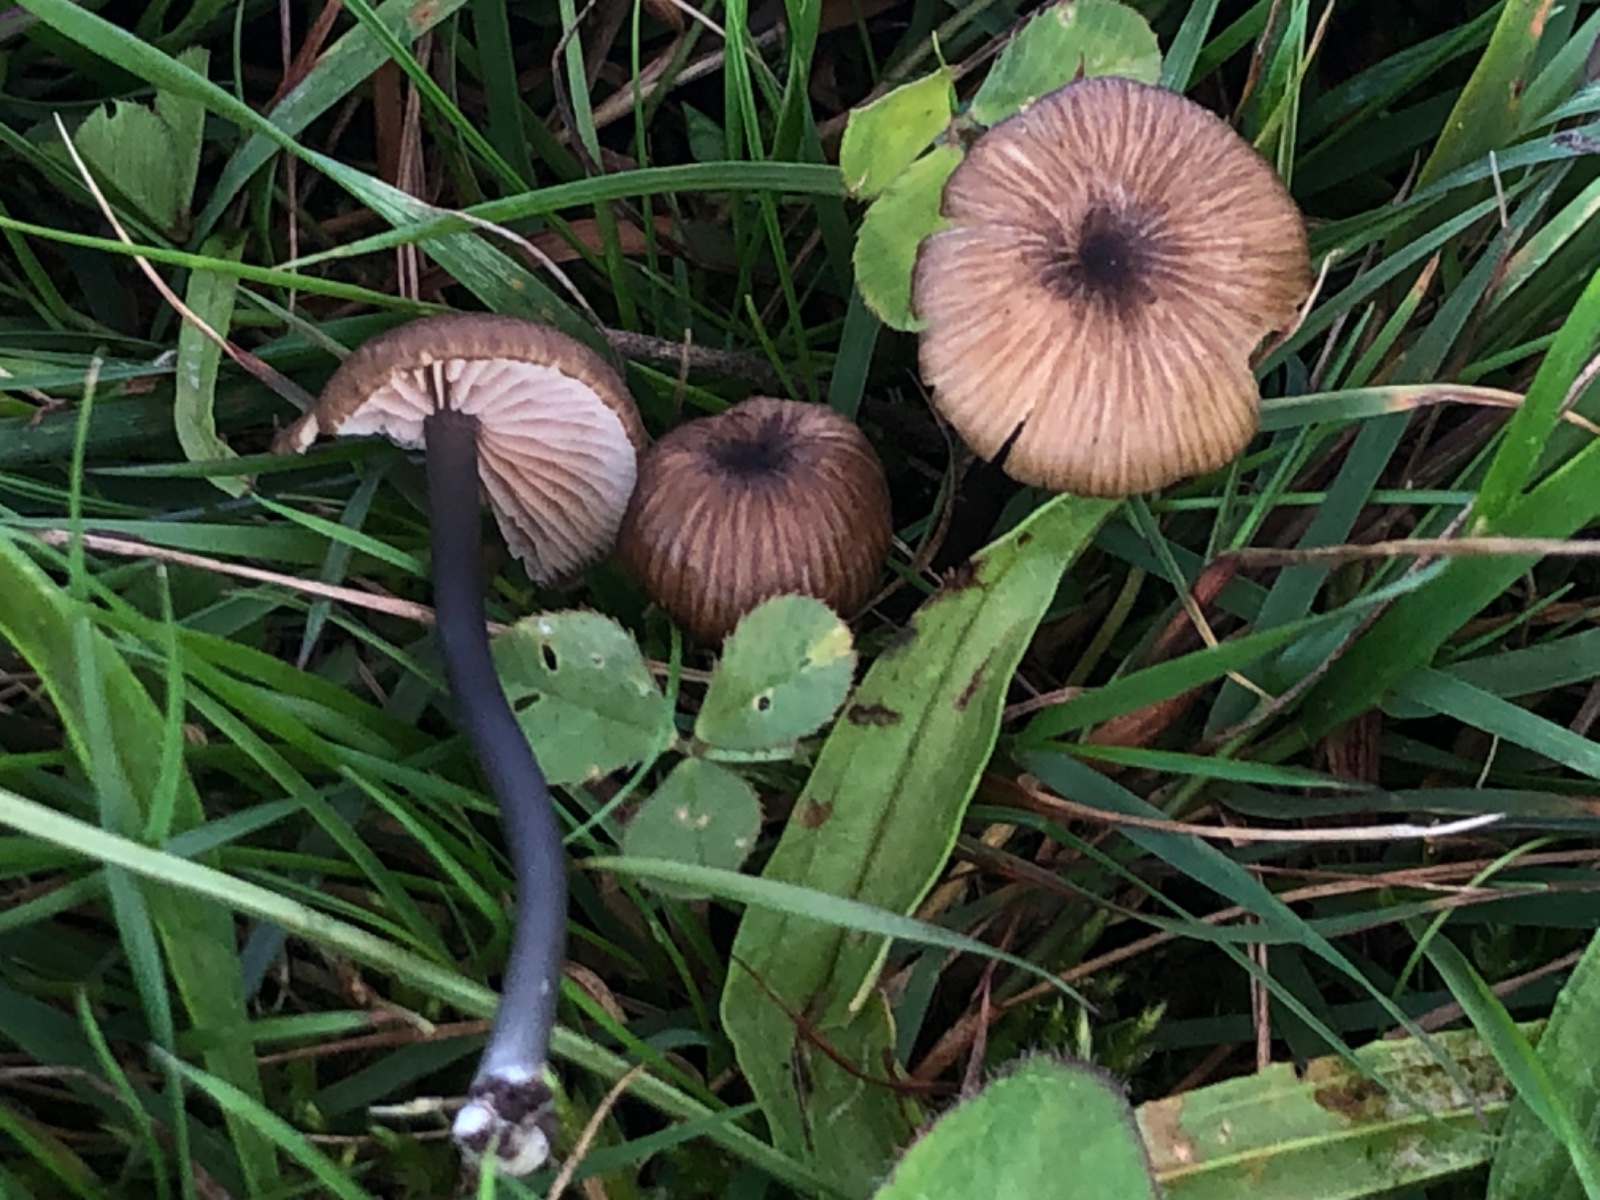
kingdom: Fungi
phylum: Basidiomycota
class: Agaricomycetes
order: Agaricales
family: Entolomataceae
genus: Entoloma
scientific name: Entoloma asprellum
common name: ru rødblad
